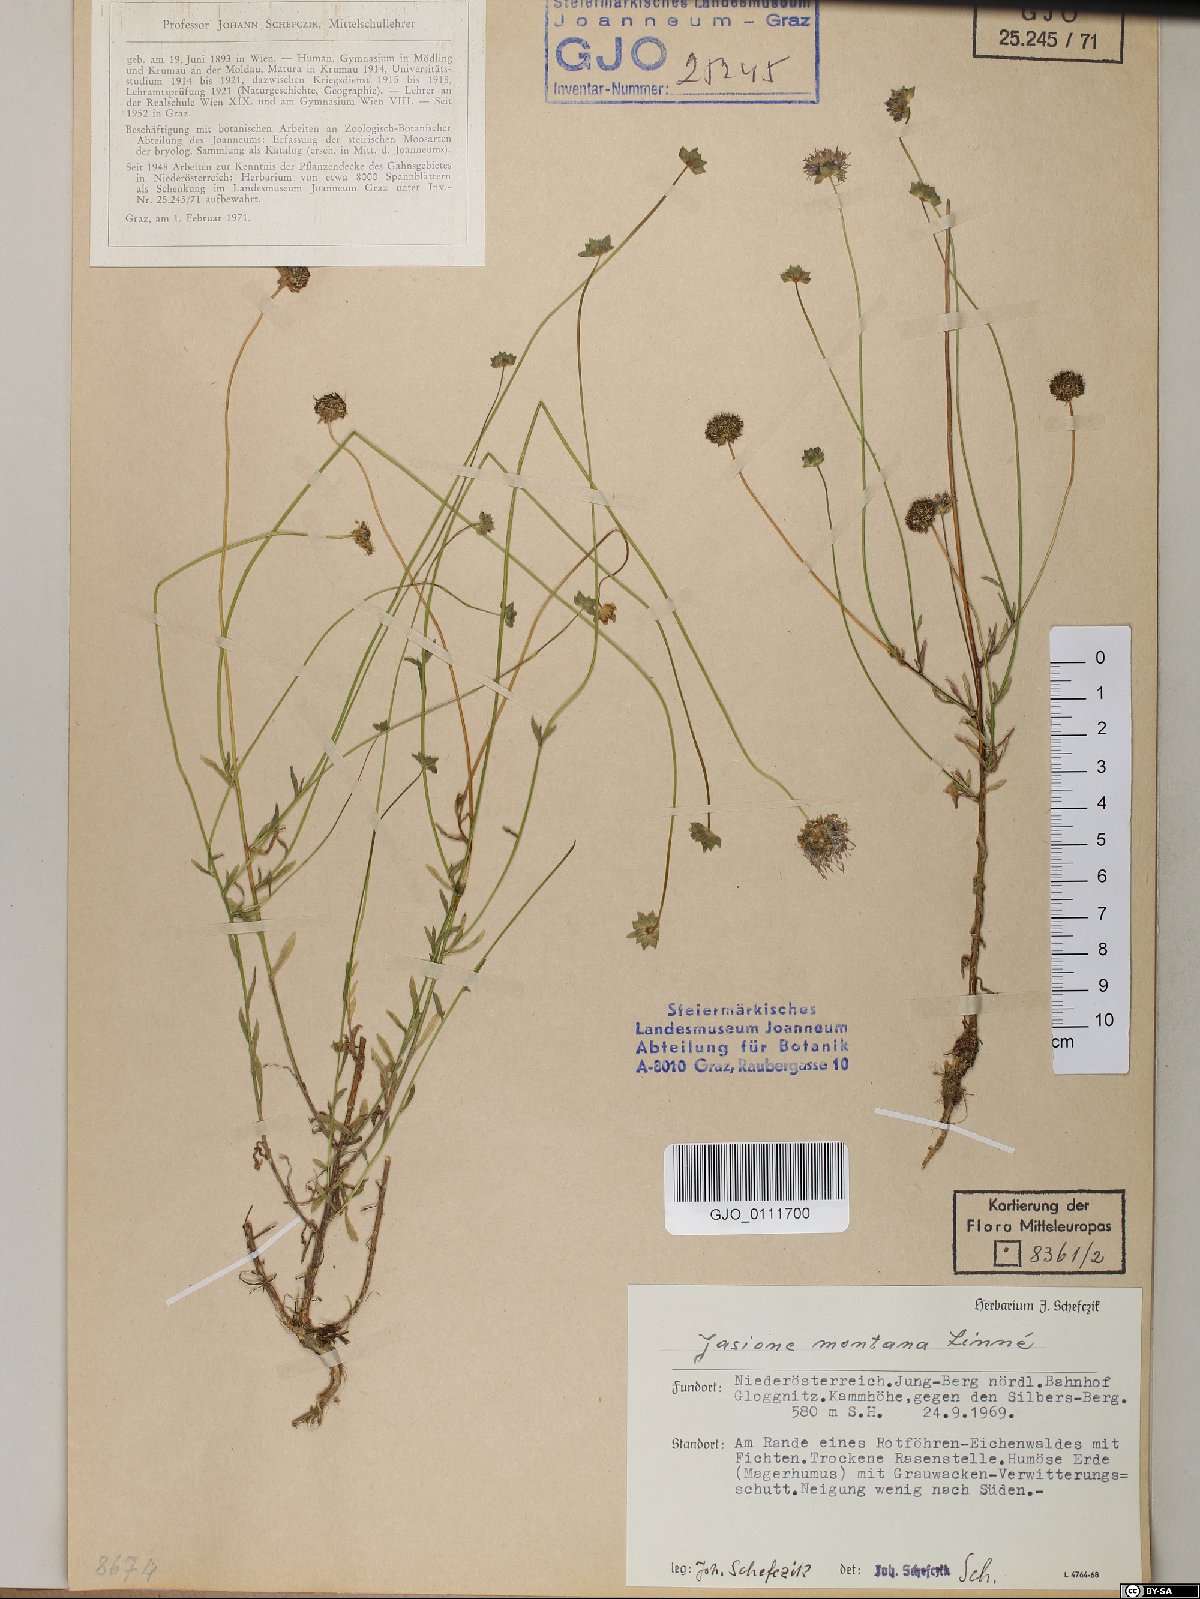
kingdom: Plantae
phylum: Tracheophyta
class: Magnoliopsida
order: Asterales
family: Campanulaceae
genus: Jasione
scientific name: Jasione montana
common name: Sheep's-bit
